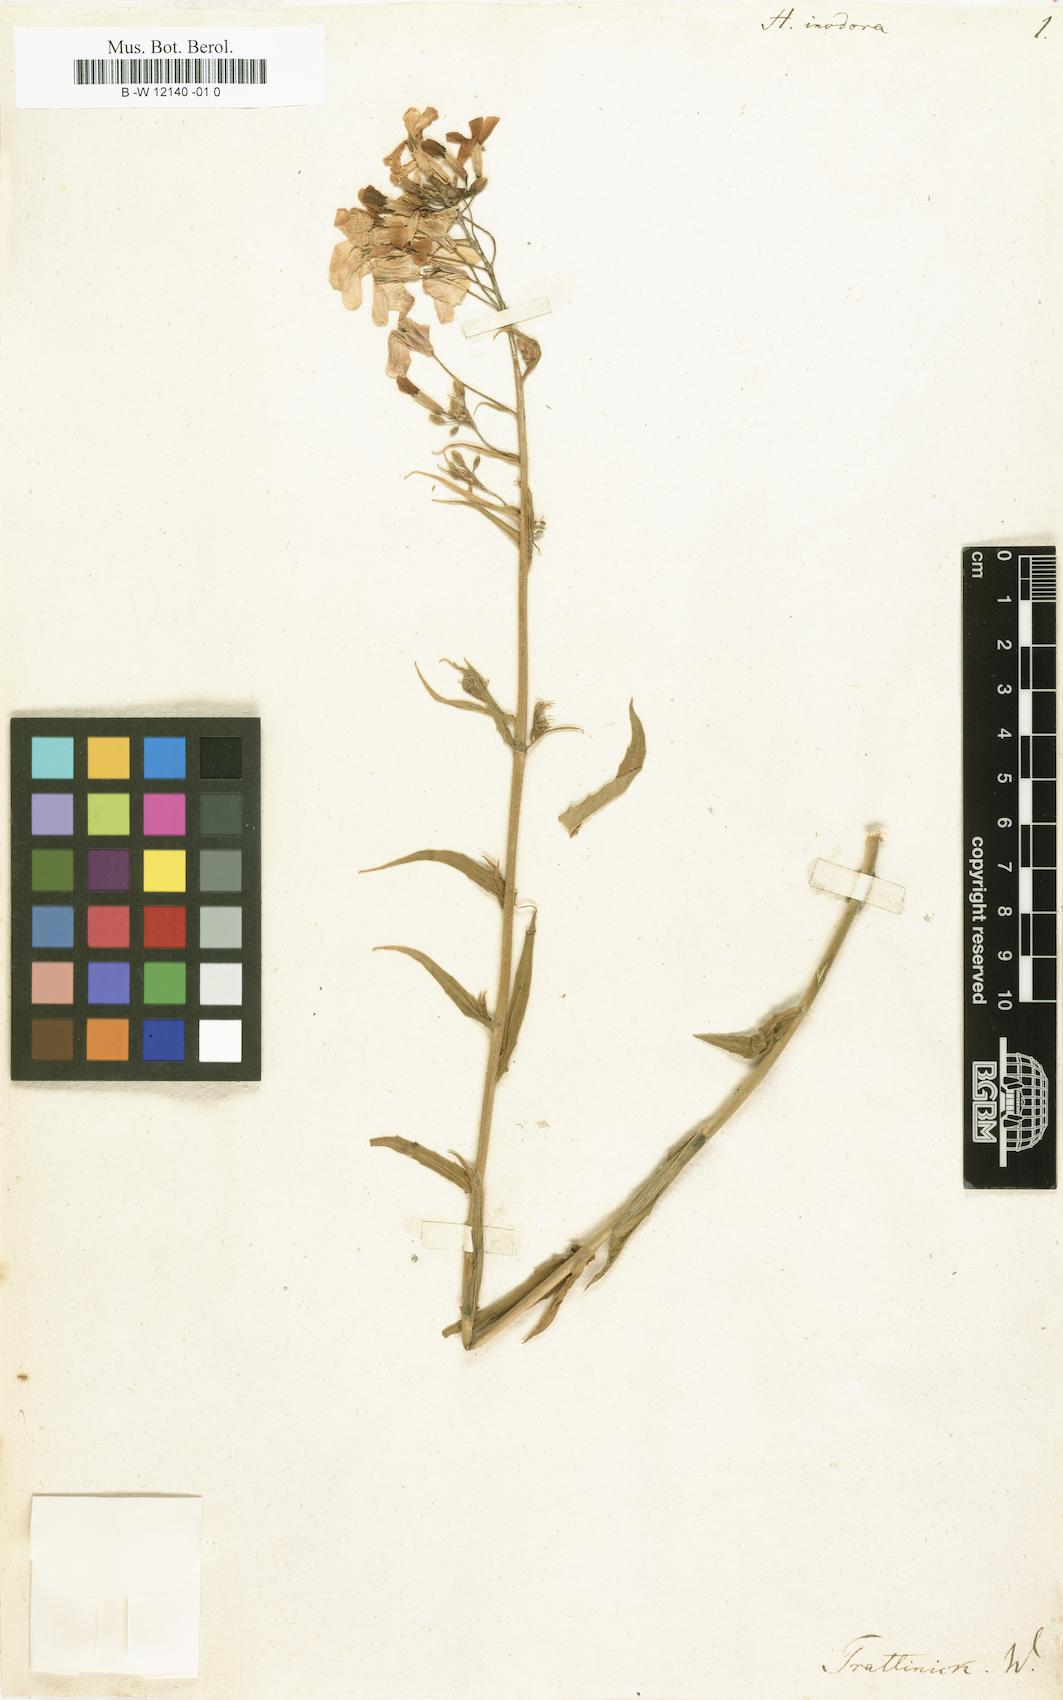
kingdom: Plantae
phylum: Tracheophyta
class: Magnoliopsida
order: Brassicales
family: Brassicaceae
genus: Hesperis
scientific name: Hesperis inodora
